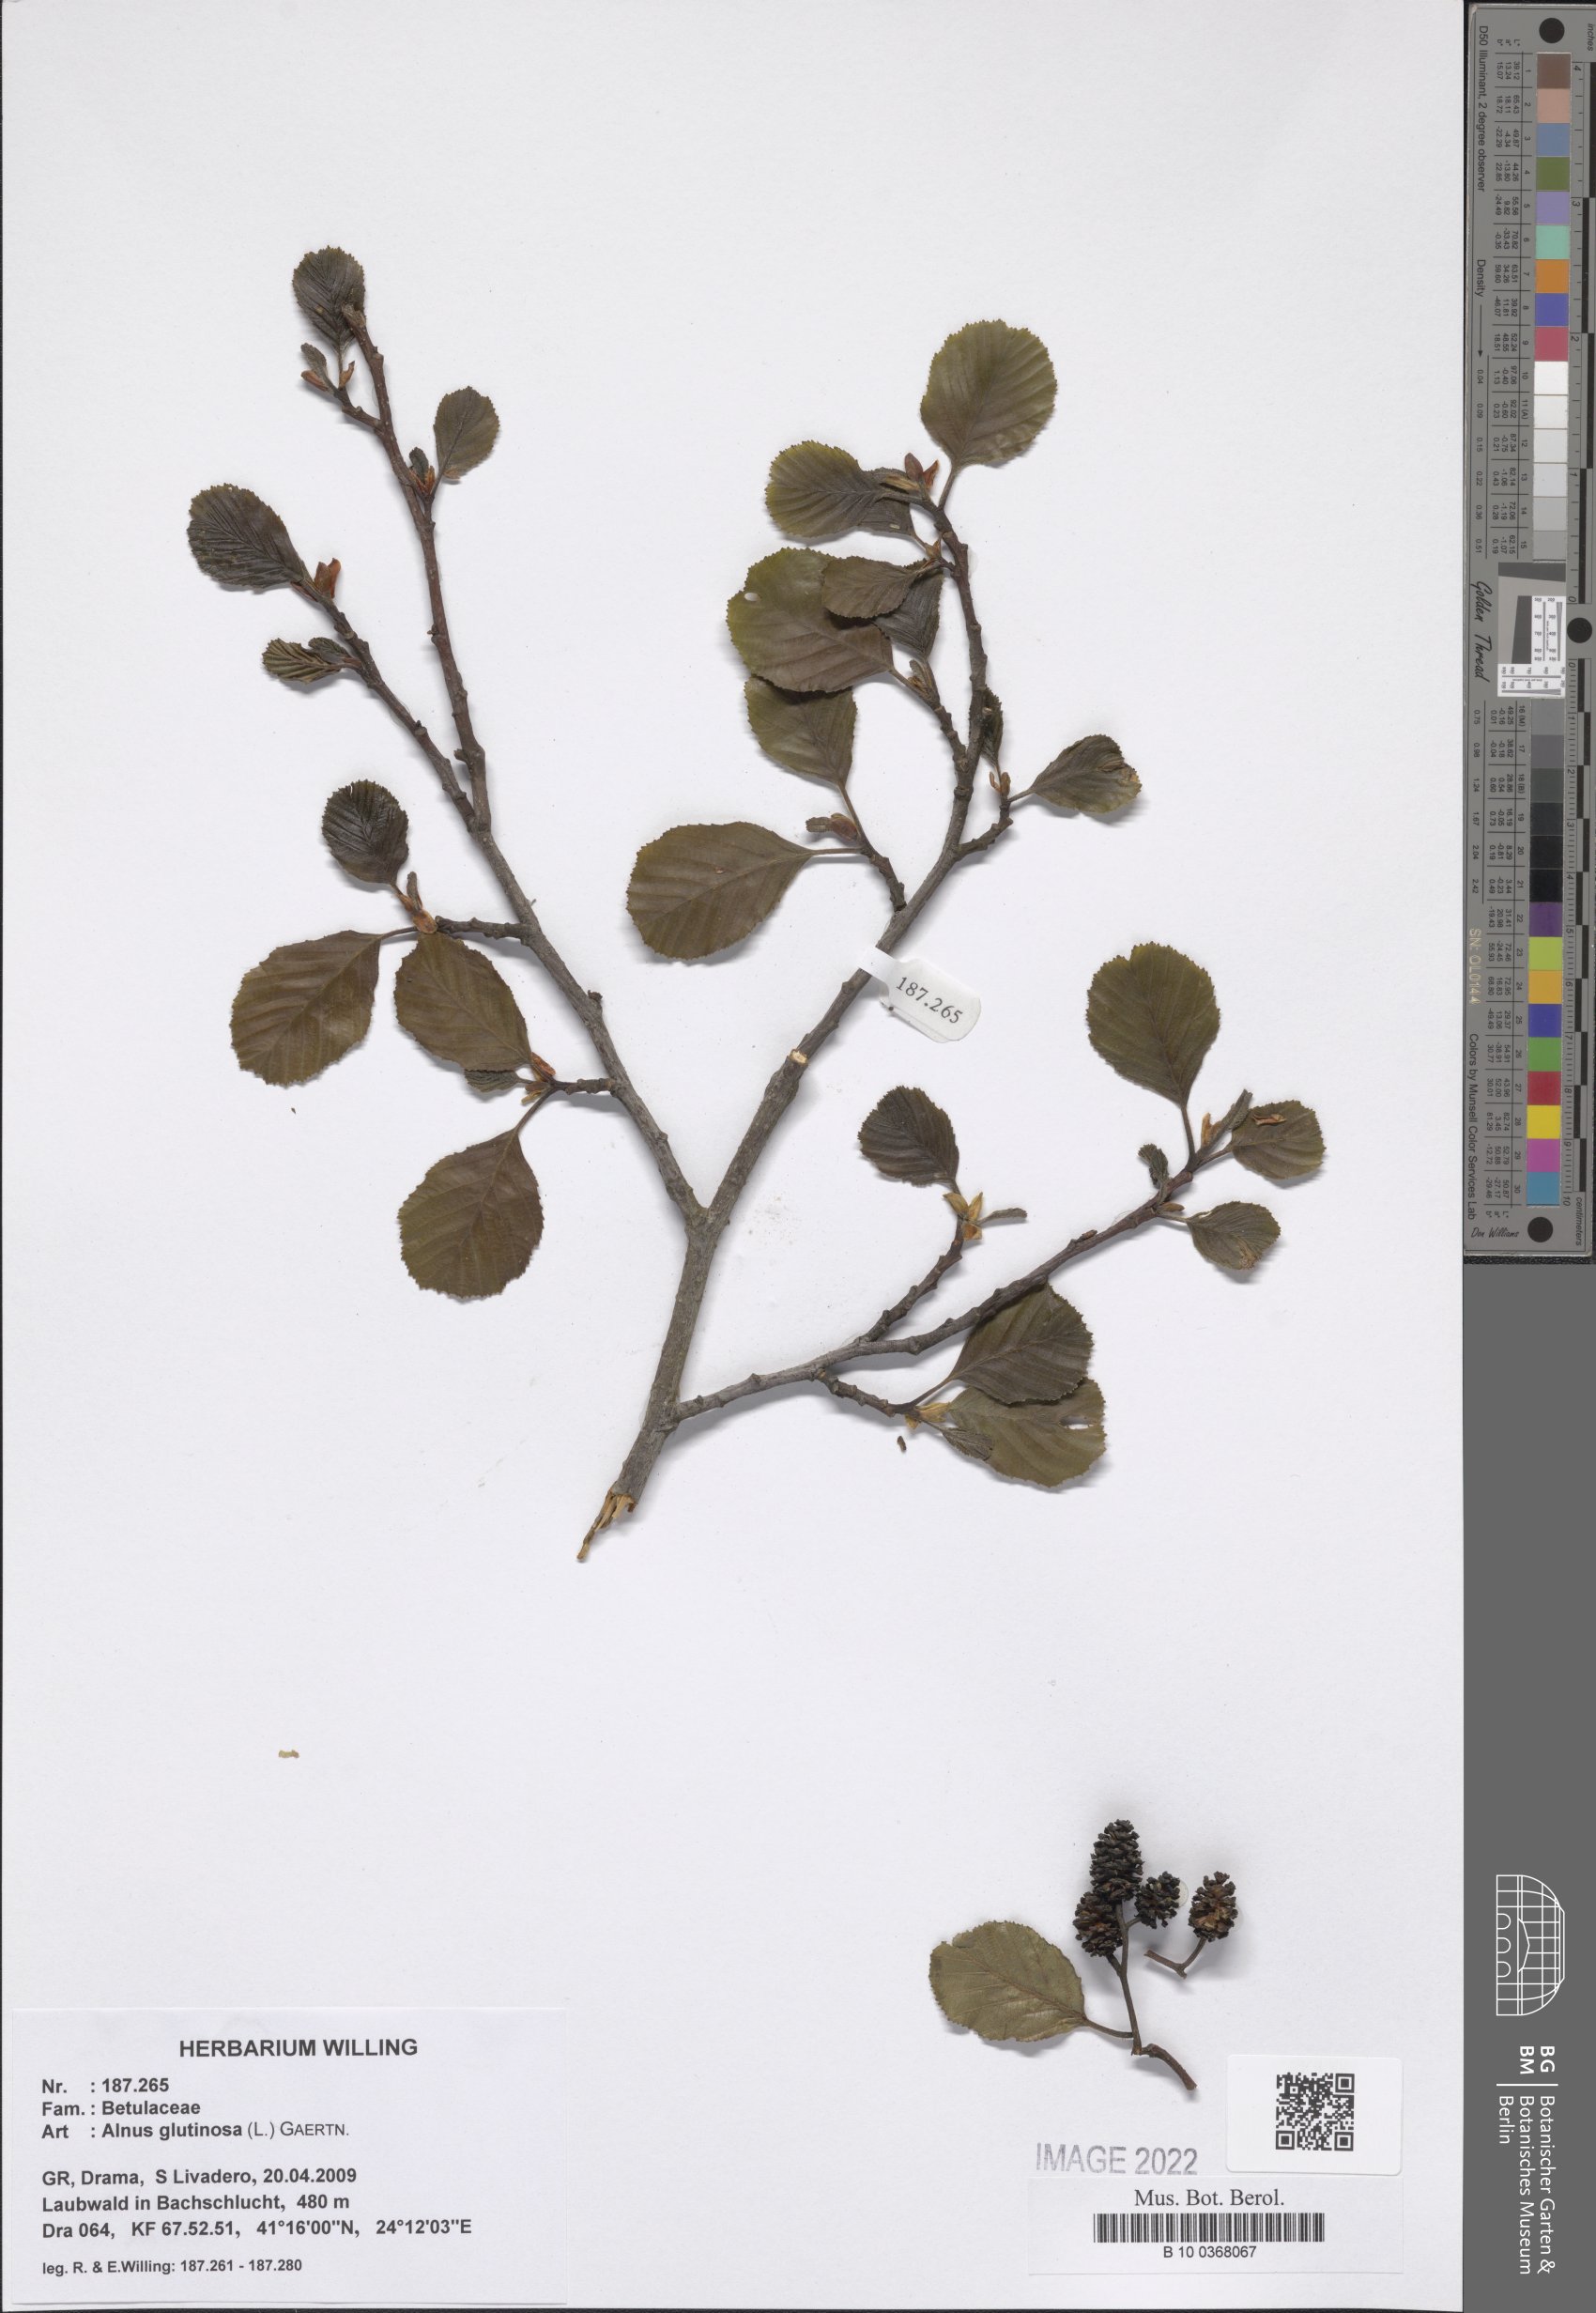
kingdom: Plantae
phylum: Tracheophyta
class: Magnoliopsida
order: Fagales
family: Betulaceae
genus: Alnus
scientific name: Alnus glutinosa
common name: Black alder
